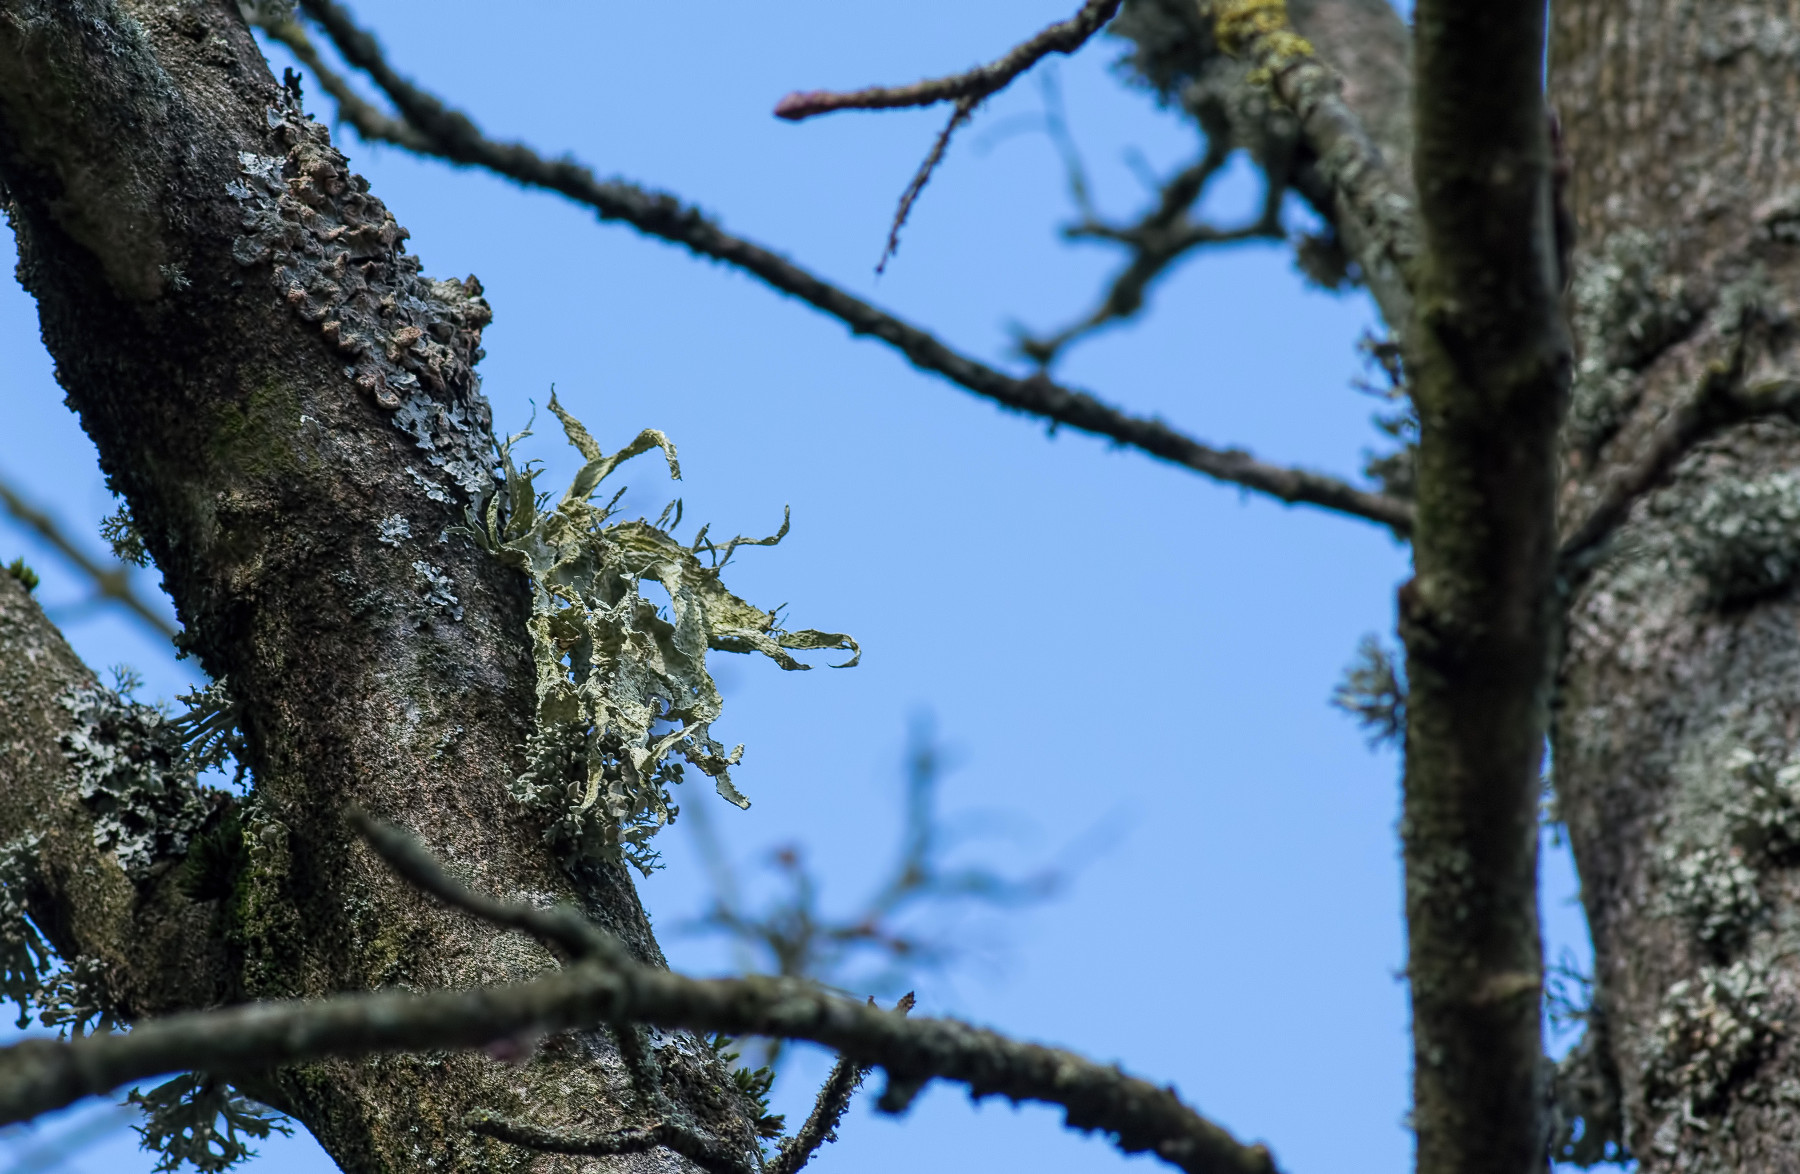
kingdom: Fungi
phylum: Ascomycota
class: Lecanoromycetes
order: Lecanorales
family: Ramalinaceae
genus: Ramalina
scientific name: Ramalina fraxinea
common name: stor grenlav
